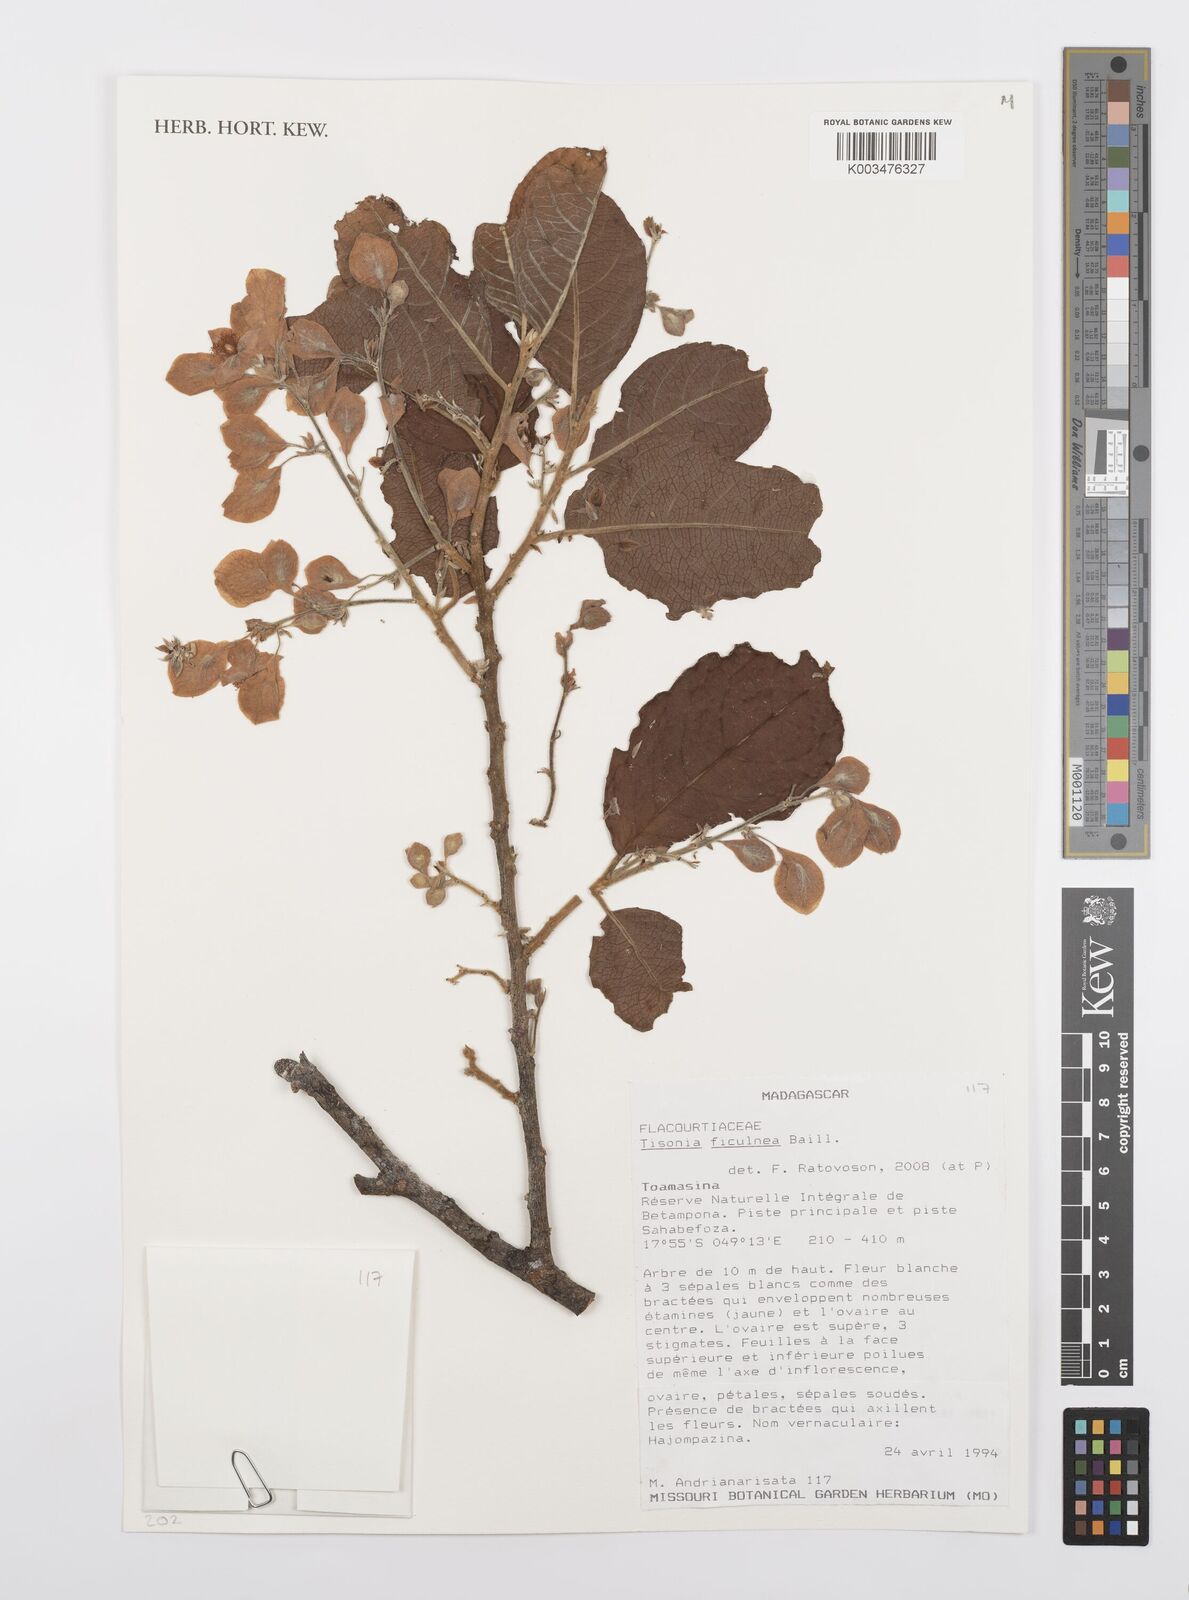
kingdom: Plantae
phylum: Tracheophyta
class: Magnoliopsida
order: Malpighiales
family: Salicaceae
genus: Tisonia
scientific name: Tisonia ficulnea
